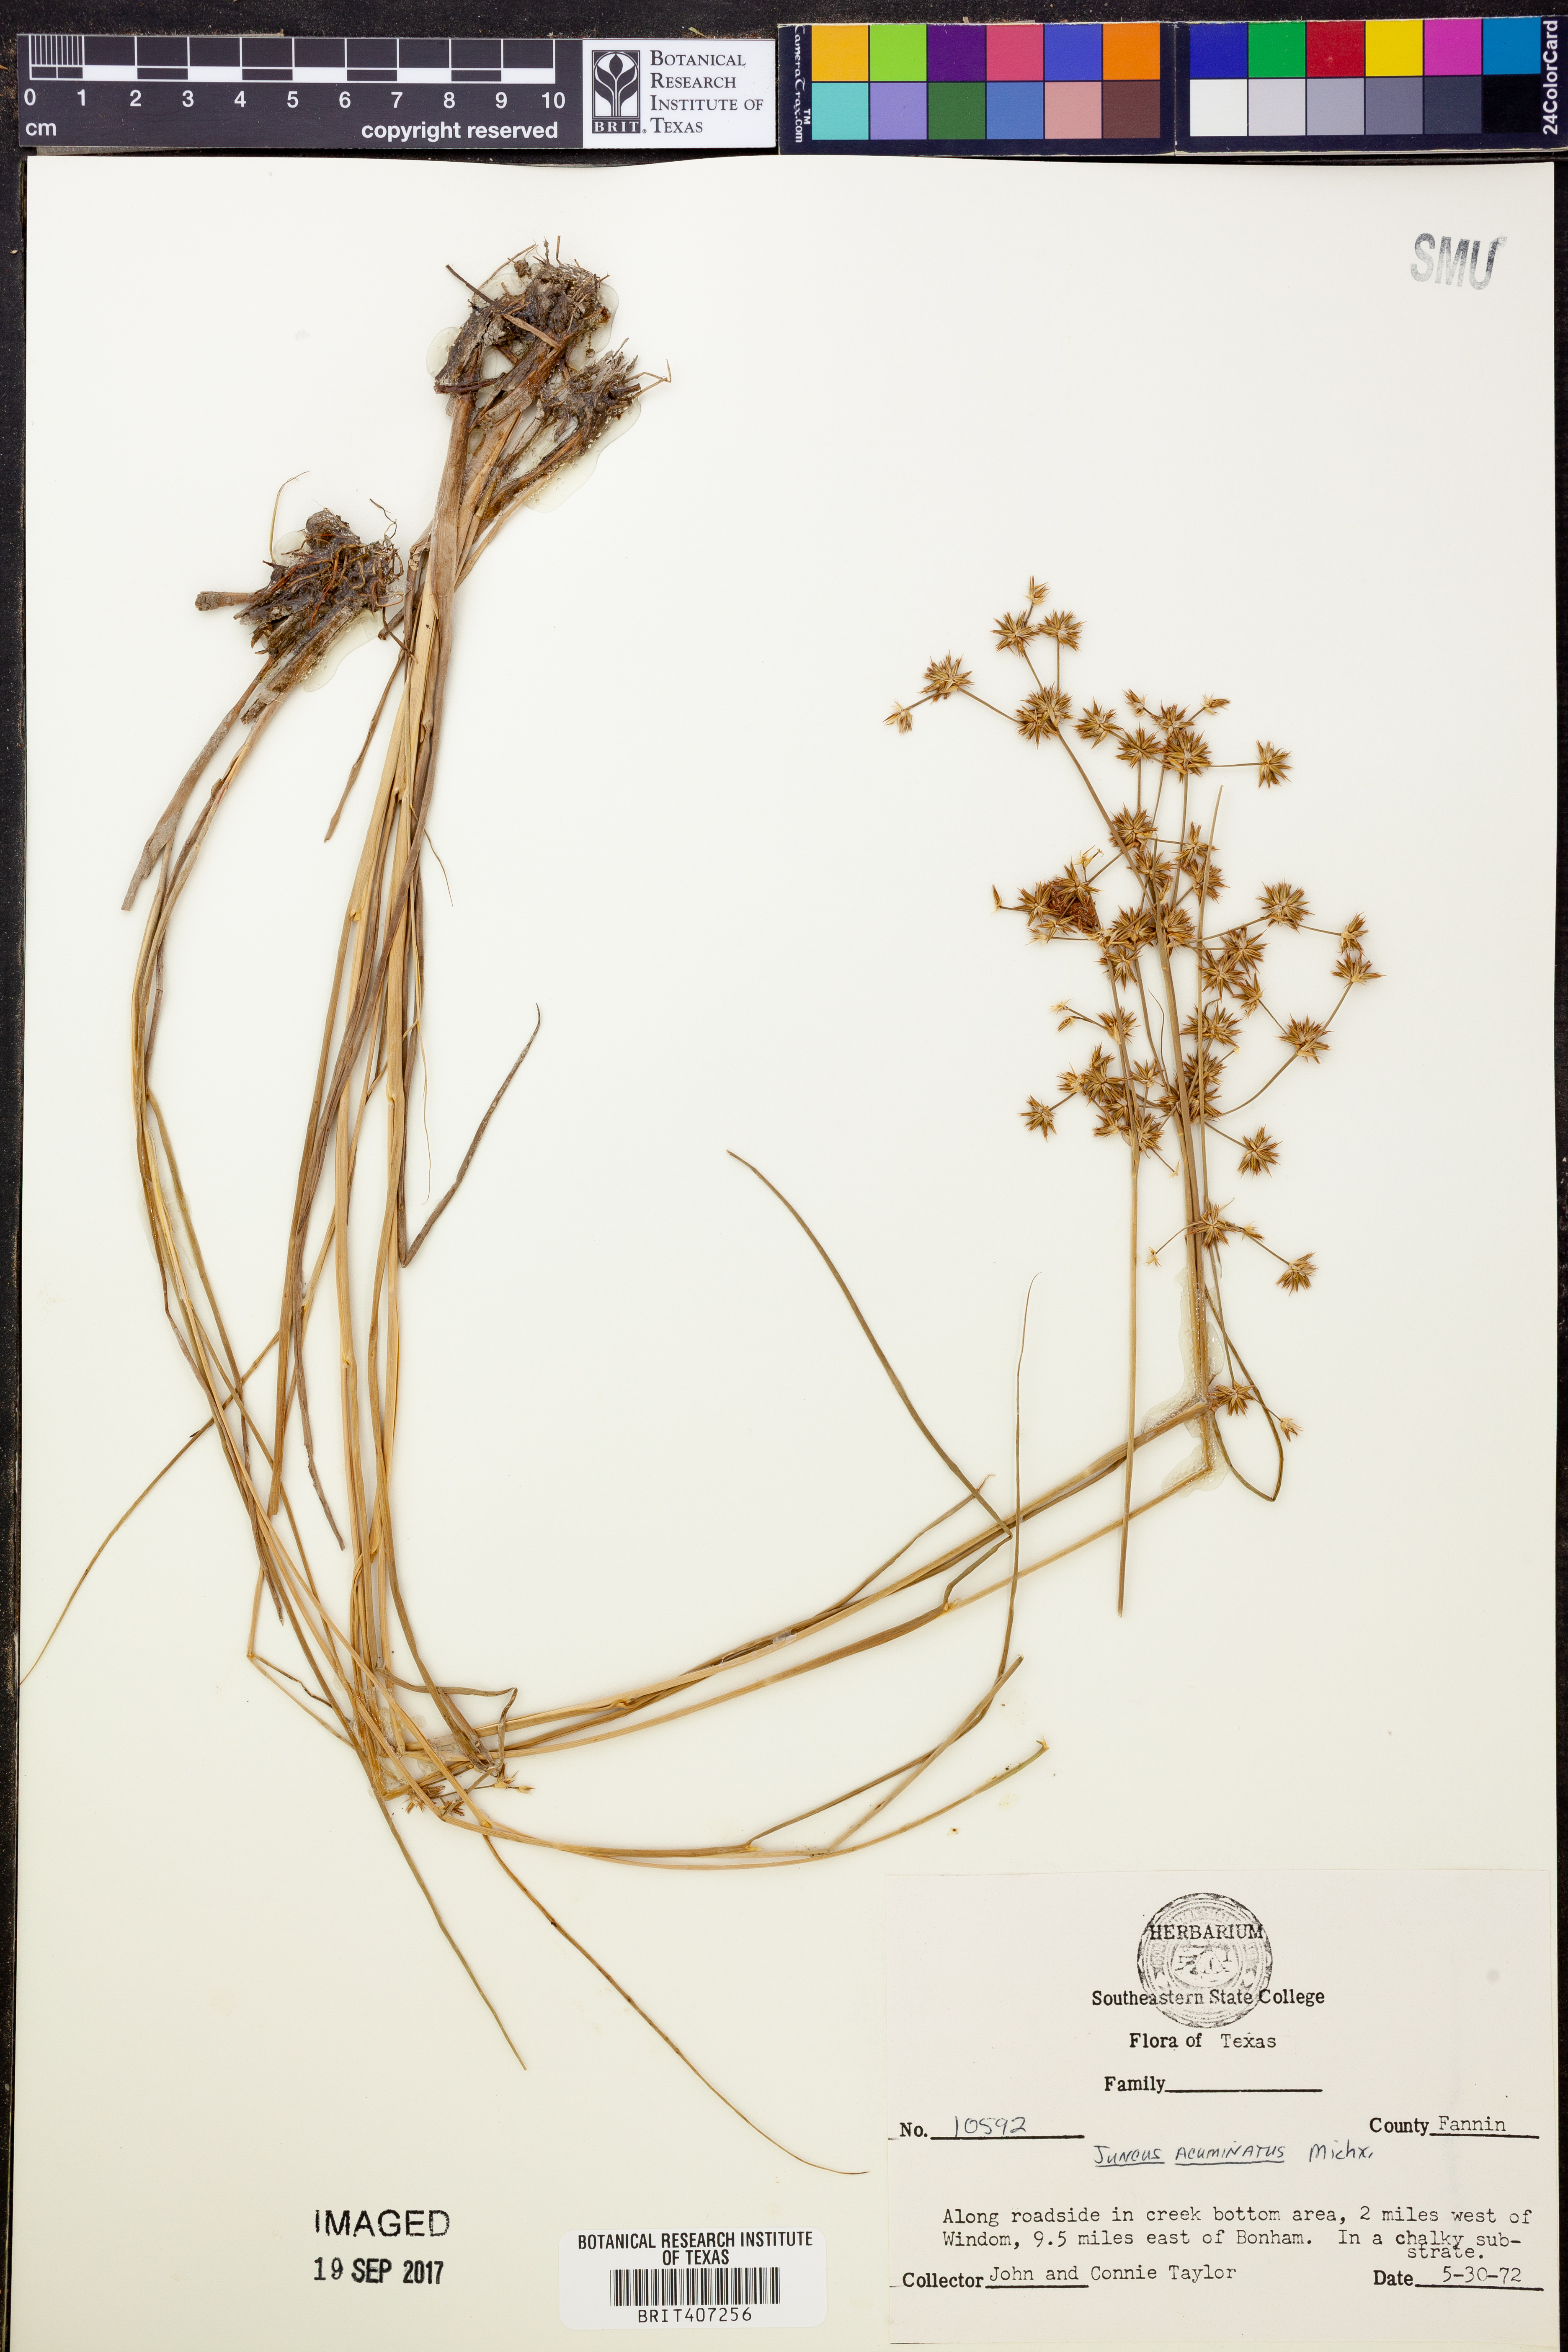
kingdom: Plantae
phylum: Tracheophyta
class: Liliopsida
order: Poales
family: Juncaceae
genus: Juncus
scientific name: Juncus acuminatus
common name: Knotty-leaved rush
